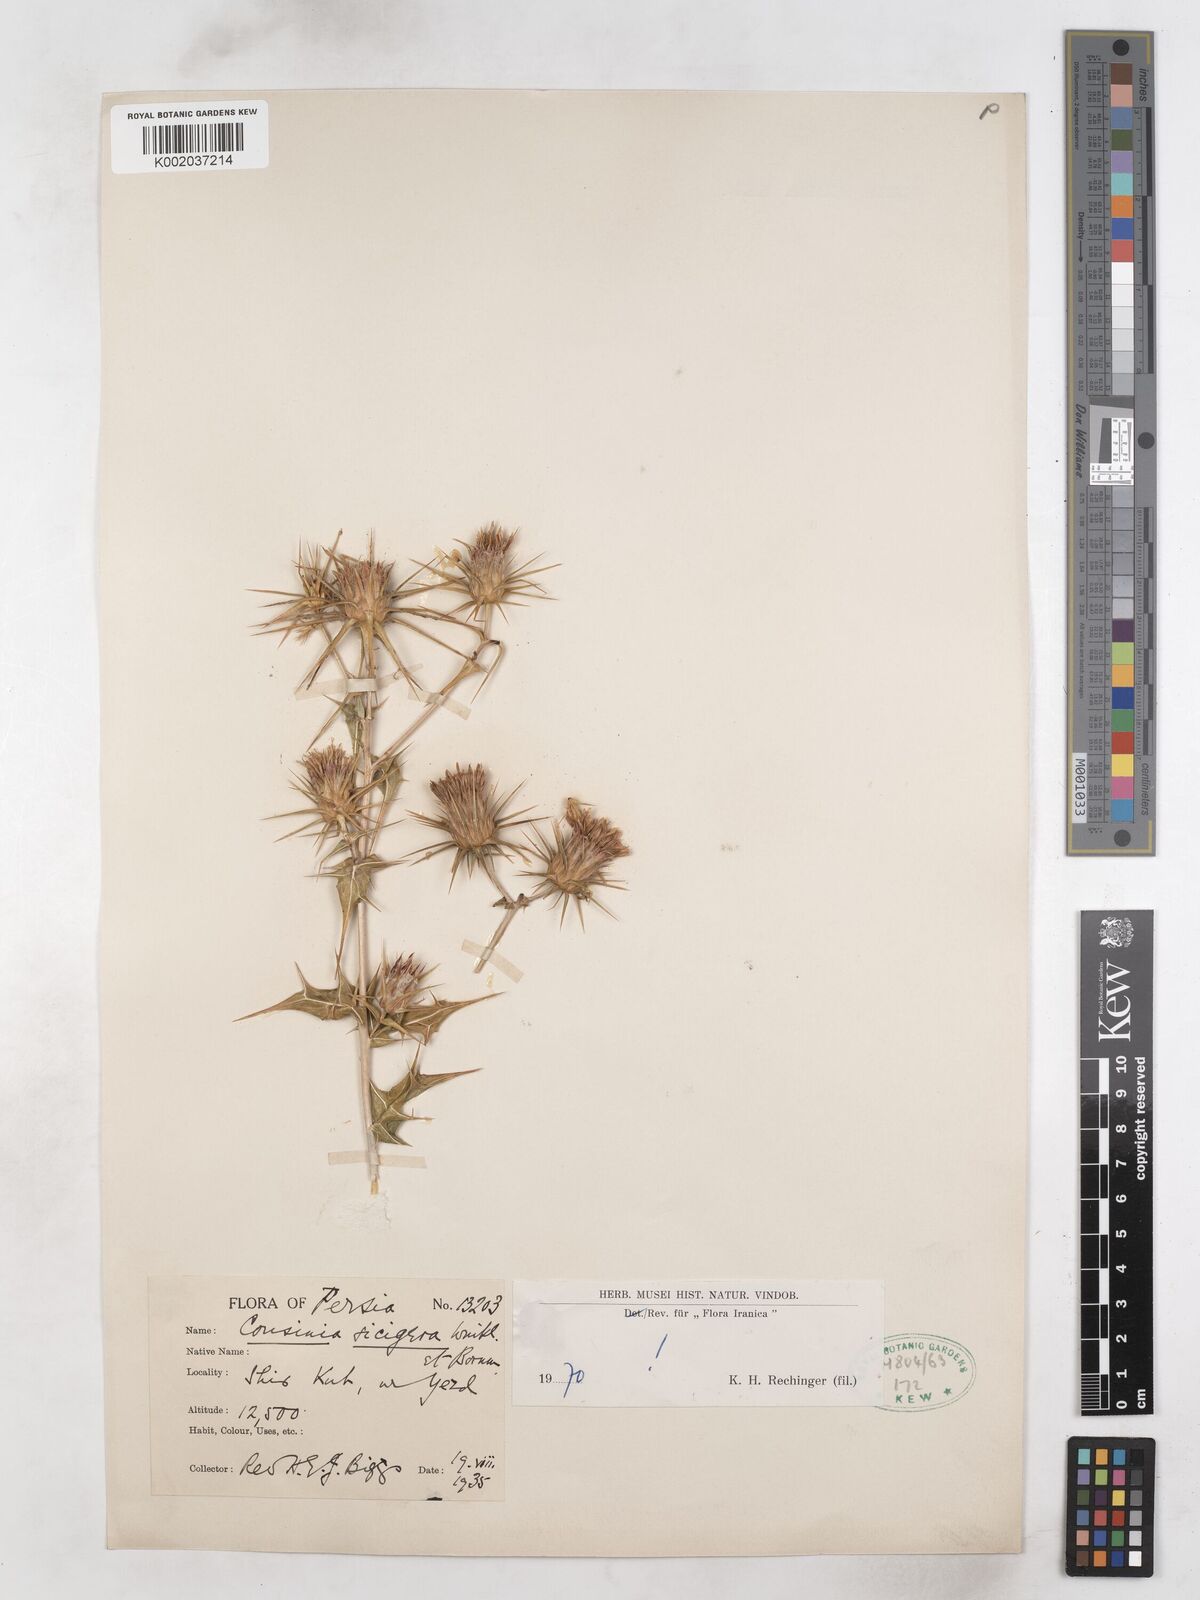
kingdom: Plantae
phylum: Tracheophyta
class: Magnoliopsida
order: Asterales
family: Asteraceae
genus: Cousinia
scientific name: Cousinia sicigera
